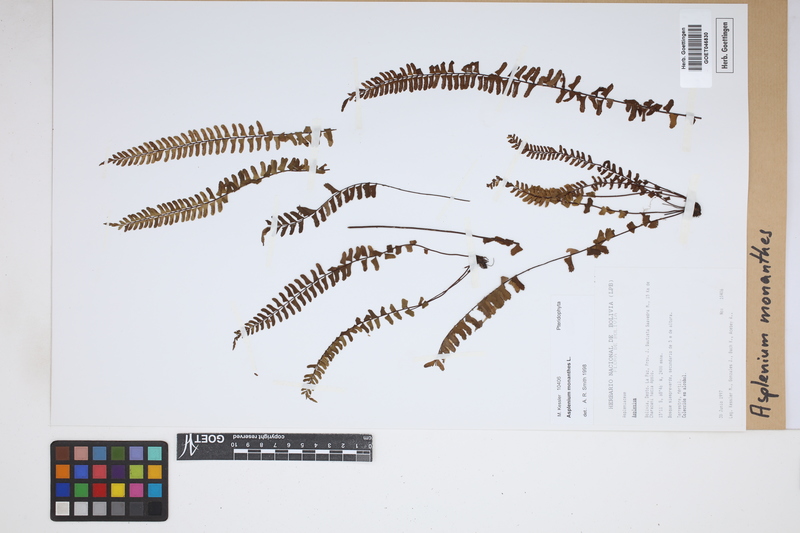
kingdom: Plantae
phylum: Tracheophyta
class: Polypodiopsida
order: Polypodiales
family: Aspleniaceae
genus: Asplenium
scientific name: Asplenium monanthes
